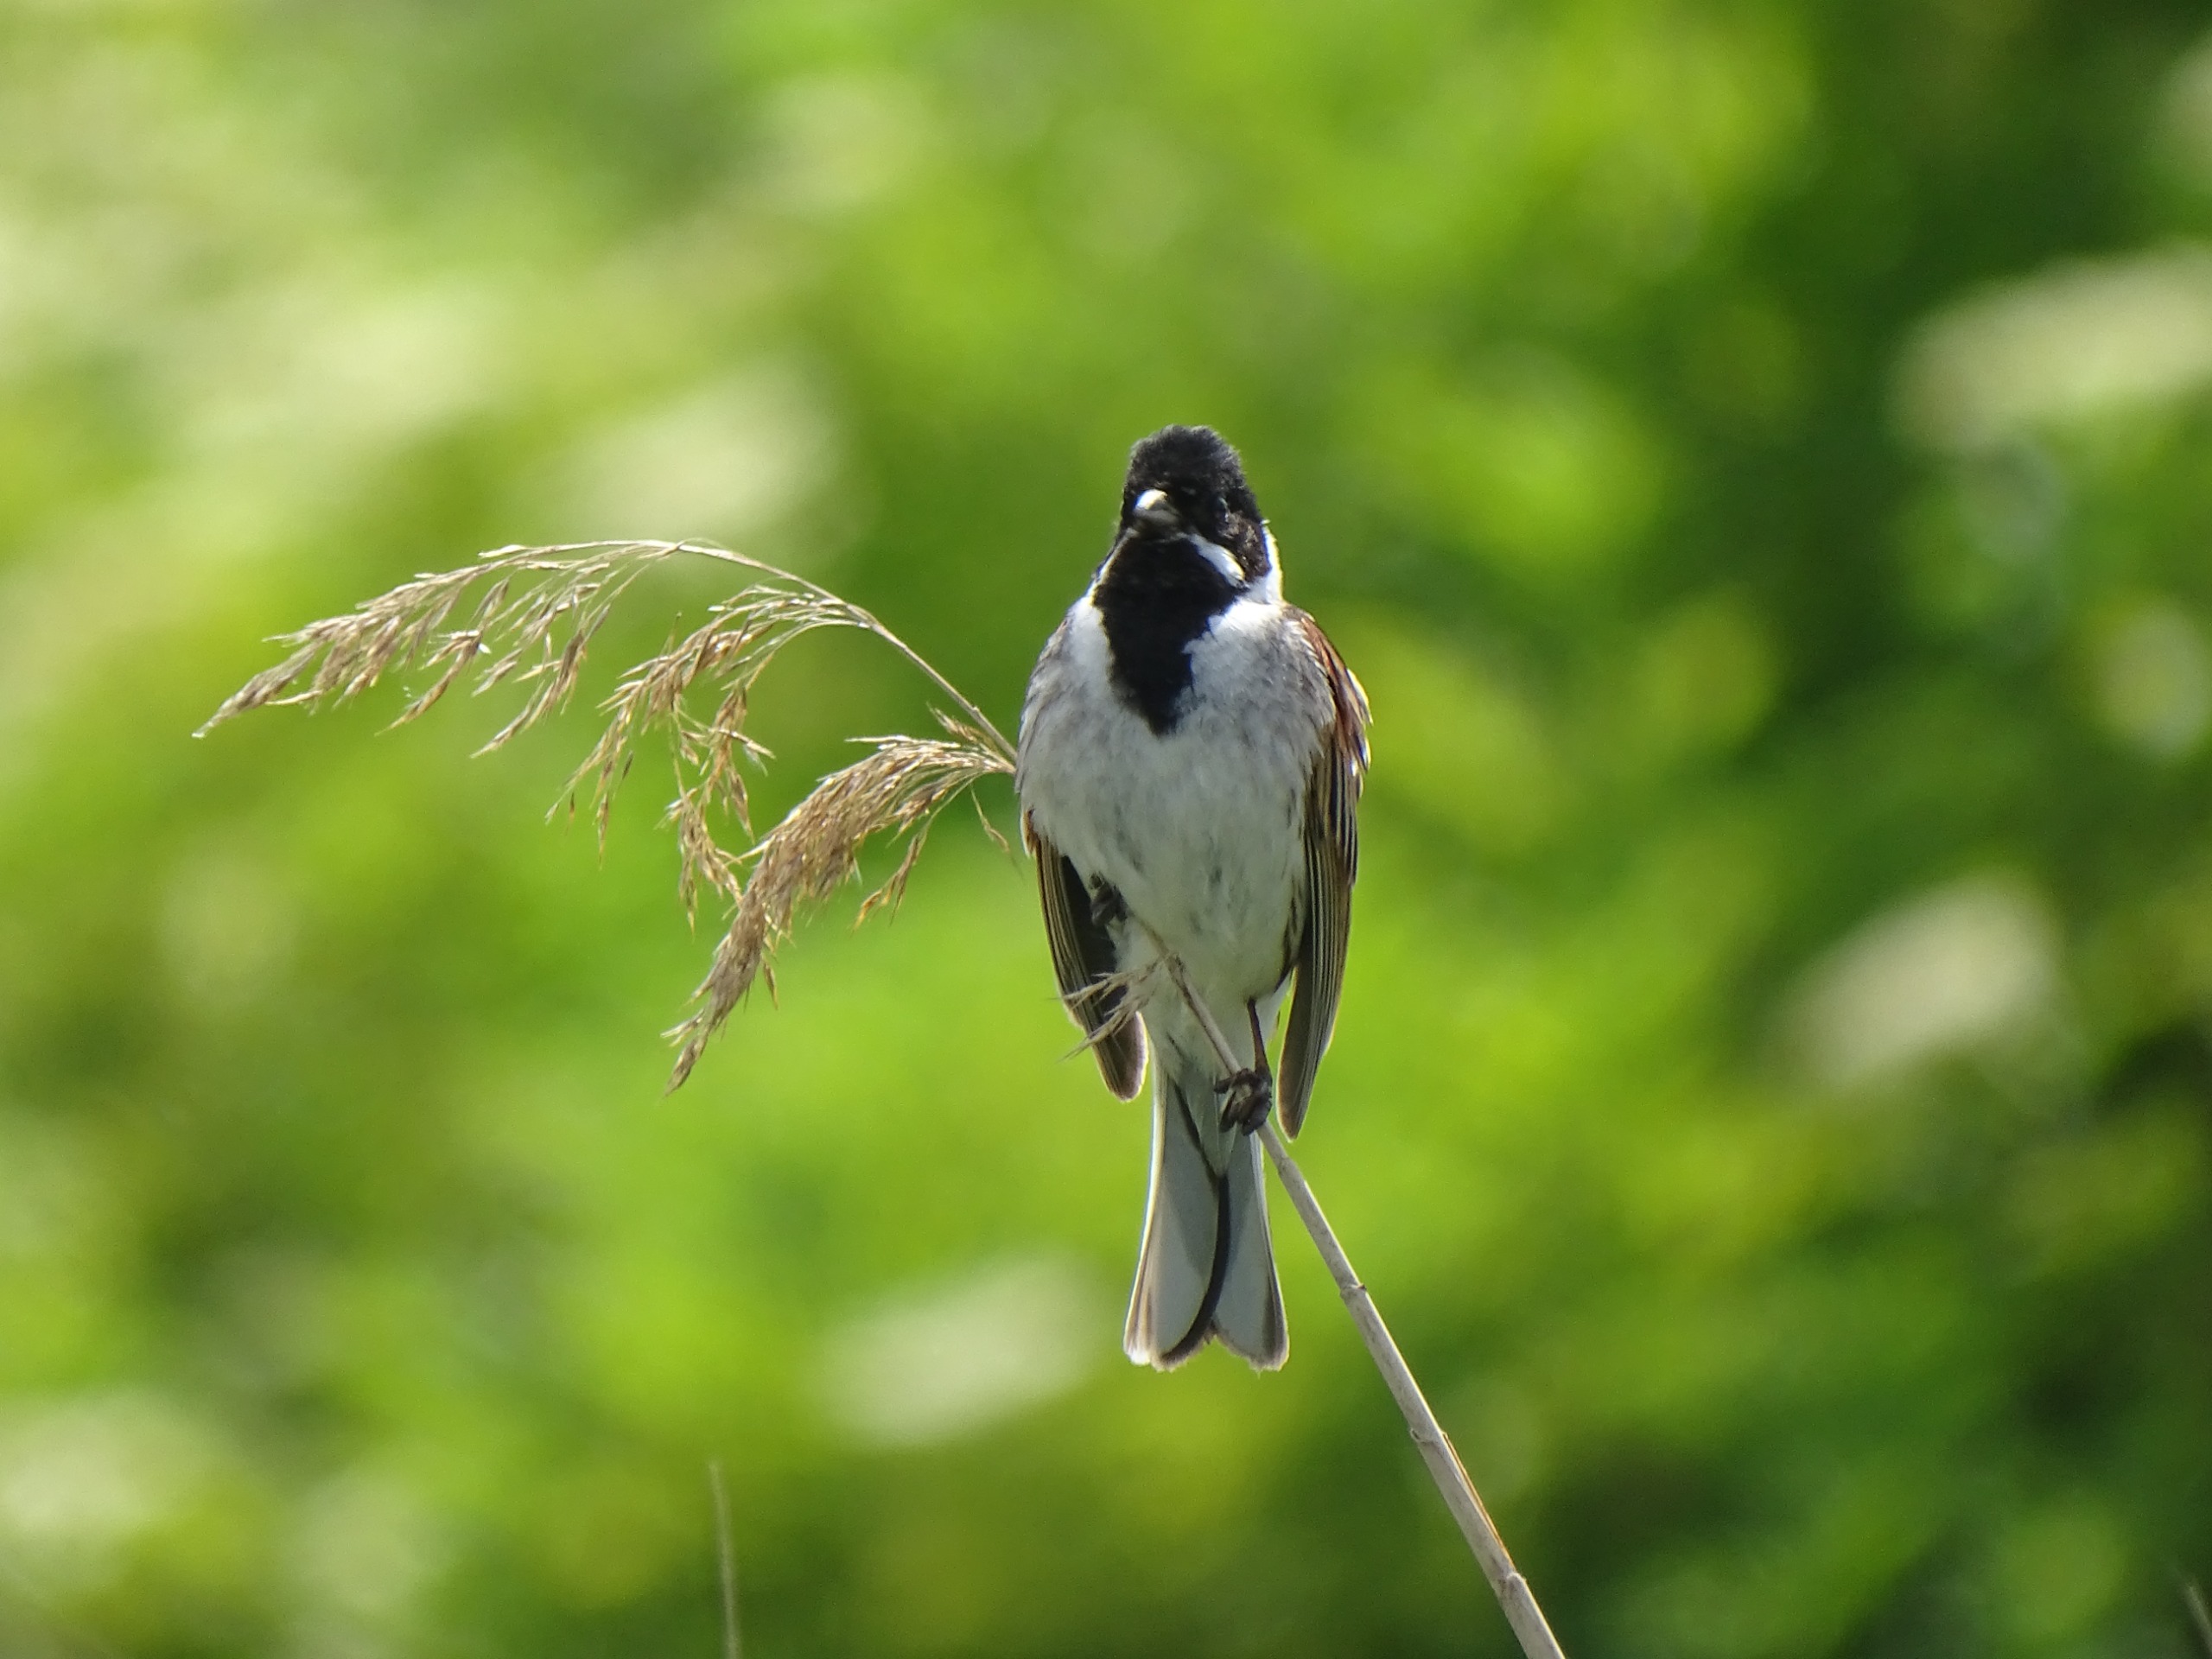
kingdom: Animalia
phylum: Chordata
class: Aves
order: Passeriformes
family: Emberizidae
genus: Emberiza
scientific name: Emberiza schoeniclus
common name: Rørspurv
